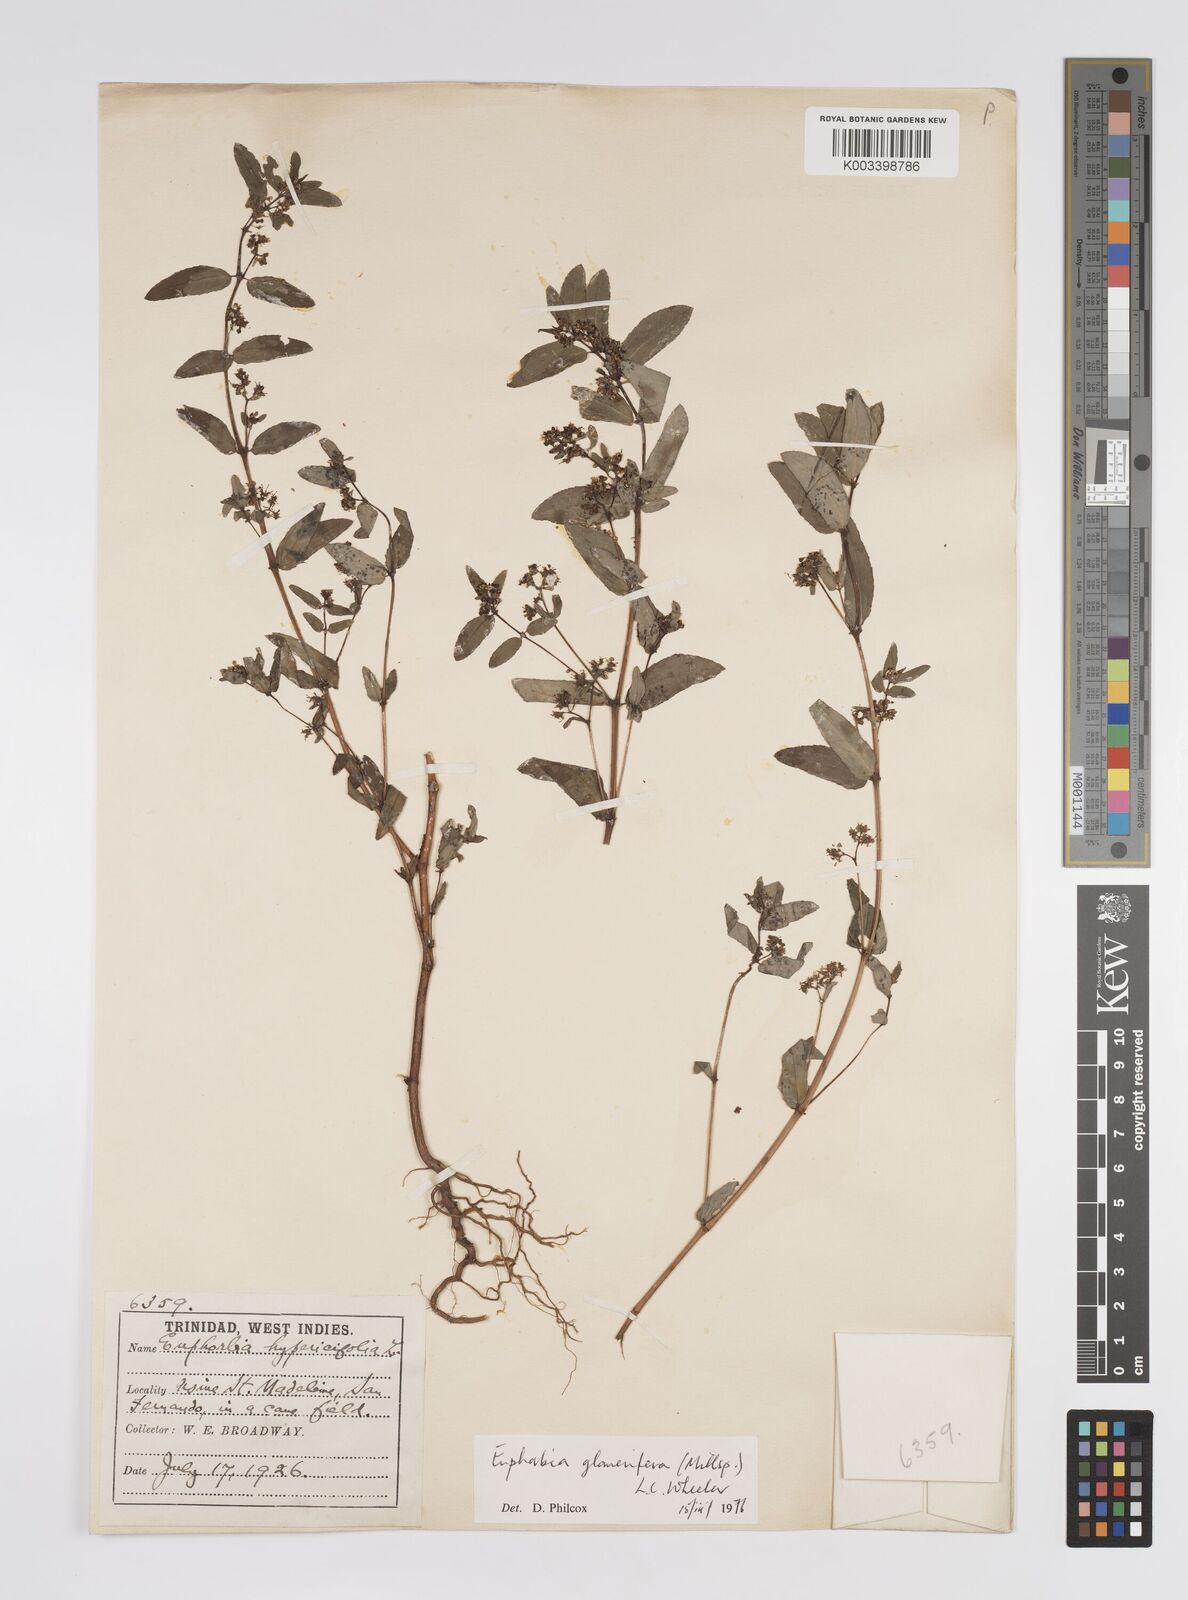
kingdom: Plantae
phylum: Tracheophyta
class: Magnoliopsida
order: Malpighiales
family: Euphorbiaceae
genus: Euphorbia
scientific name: Euphorbia hypericifolia
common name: Graceful sandmat
